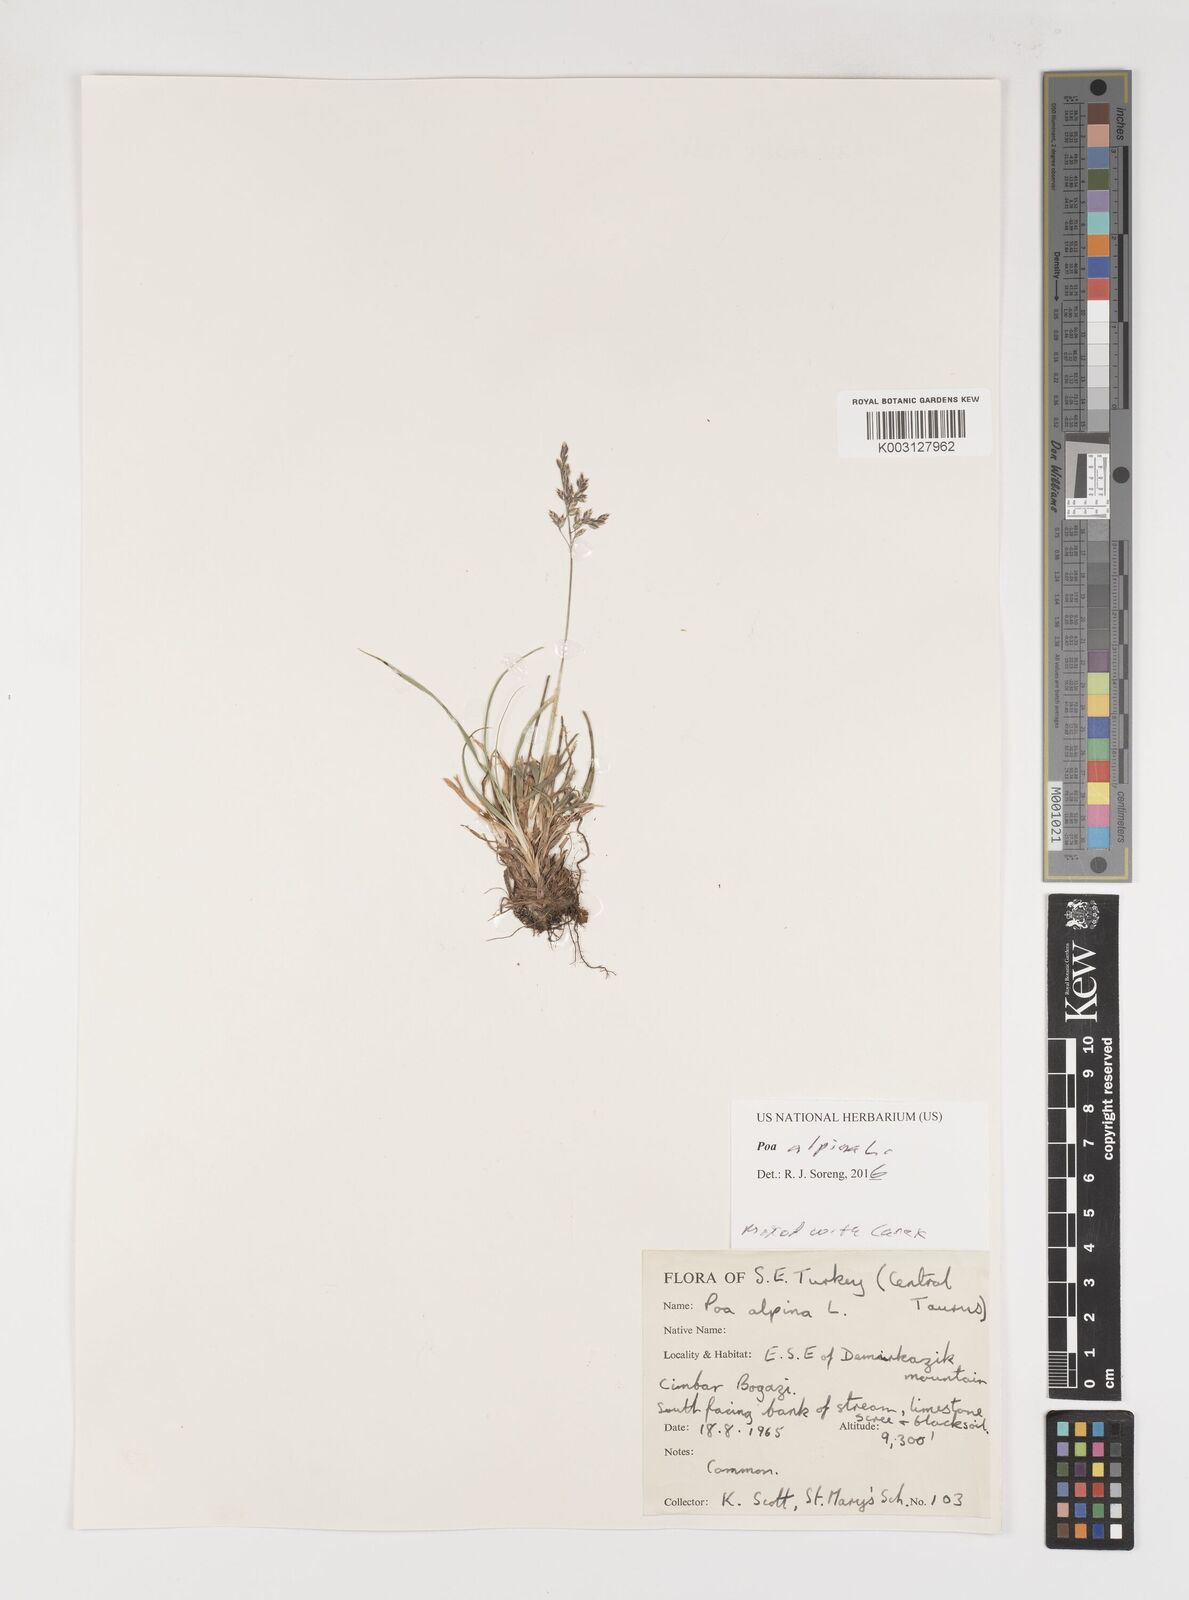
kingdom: Plantae
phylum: Tracheophyta
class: Liliopsida
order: Poales
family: Poaceae
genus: Poa
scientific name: Poa alpina
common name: Alpine bluegrass
